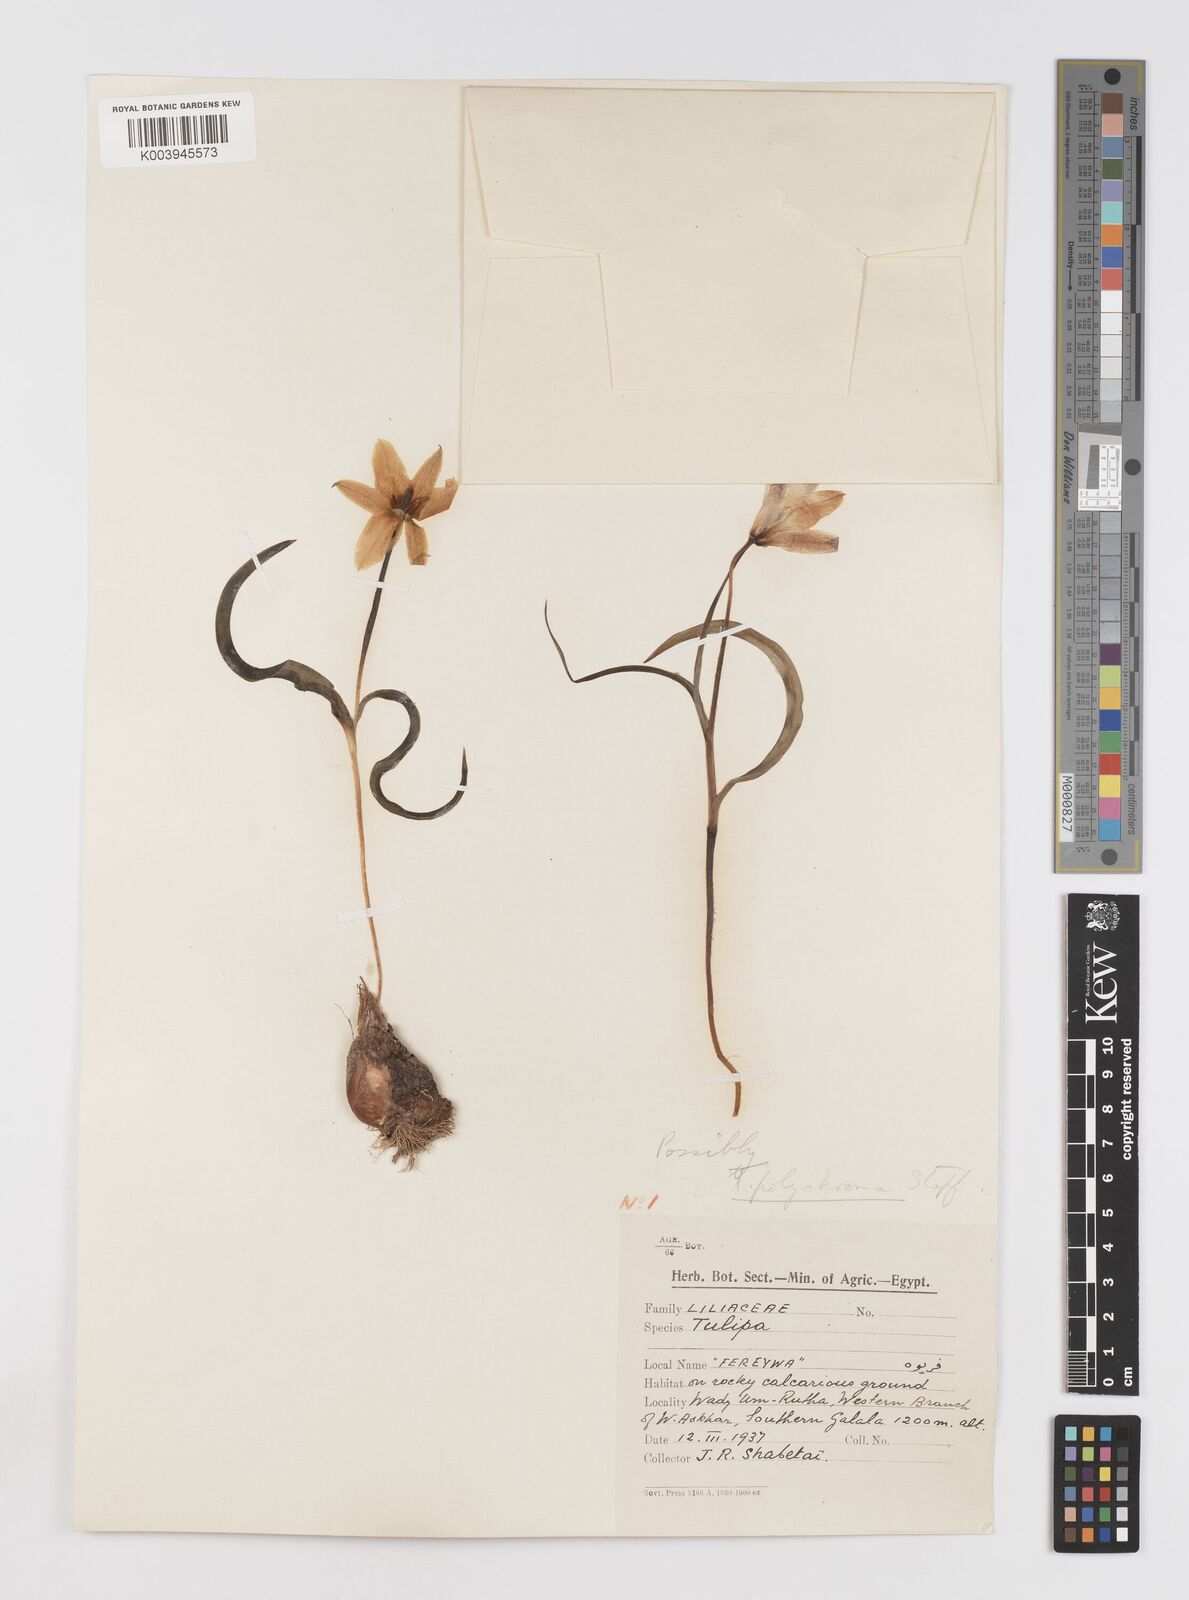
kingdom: Plantae
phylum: Tracheophyta
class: Liliopsida
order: Liliales
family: Liliaceae
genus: Tulipa
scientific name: Tulipa biflora
